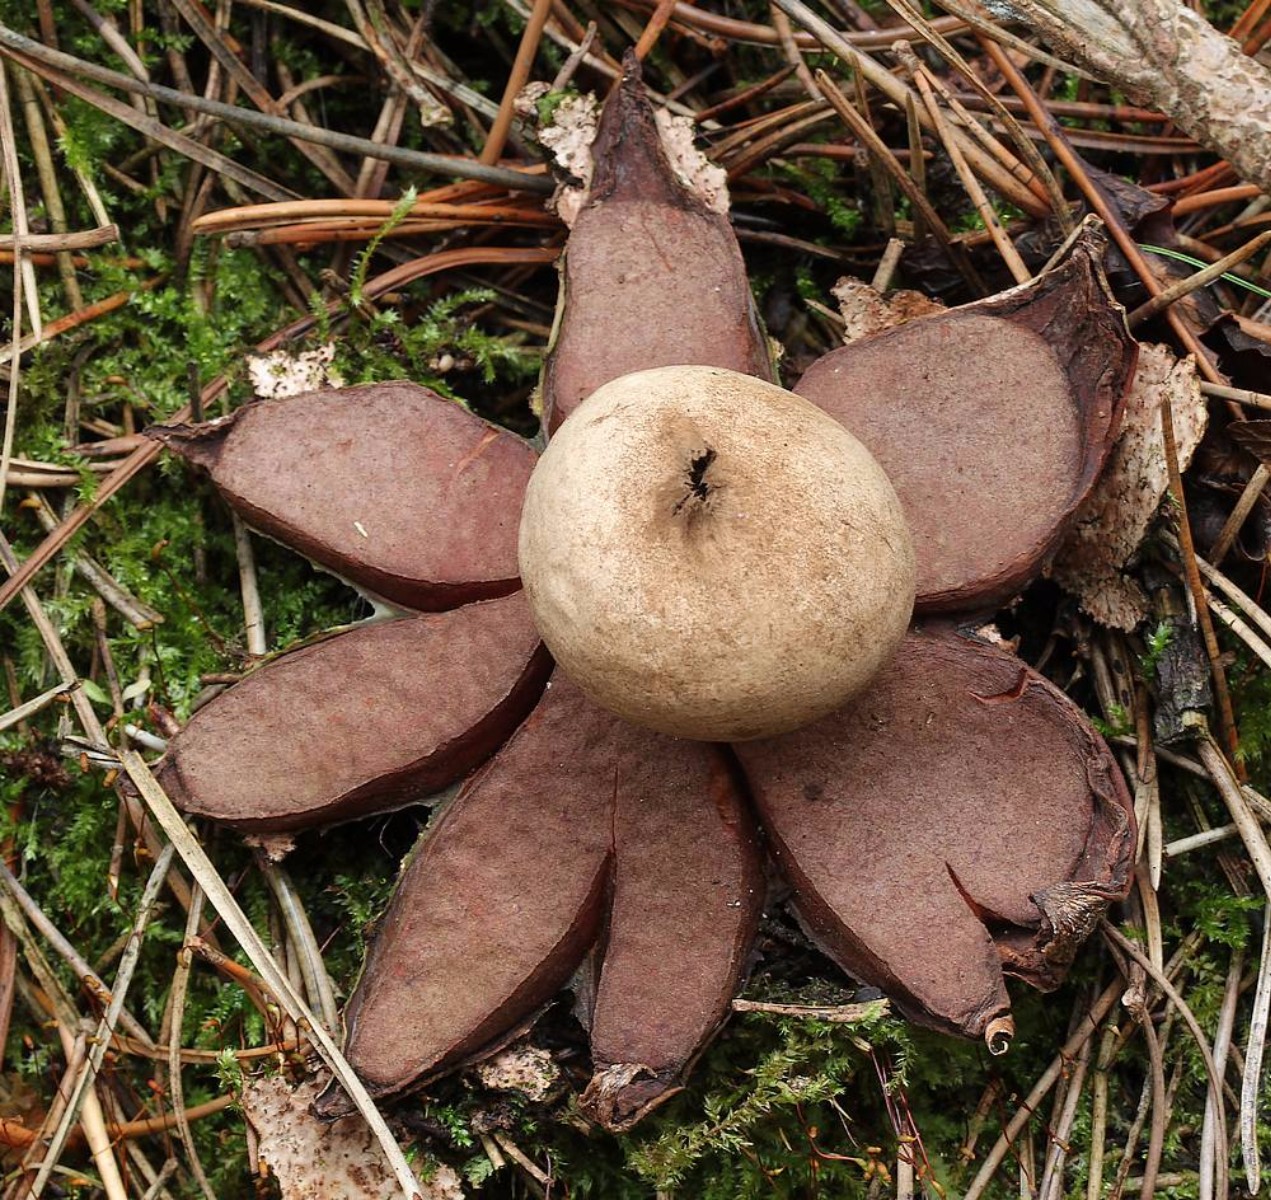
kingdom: Fungi
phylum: Basidiomycota
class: Agaricomycetes
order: Geastrales
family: Geastraceae
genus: Geastrum
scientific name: Geastrum rufescens
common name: kødfarvet stjernebold
